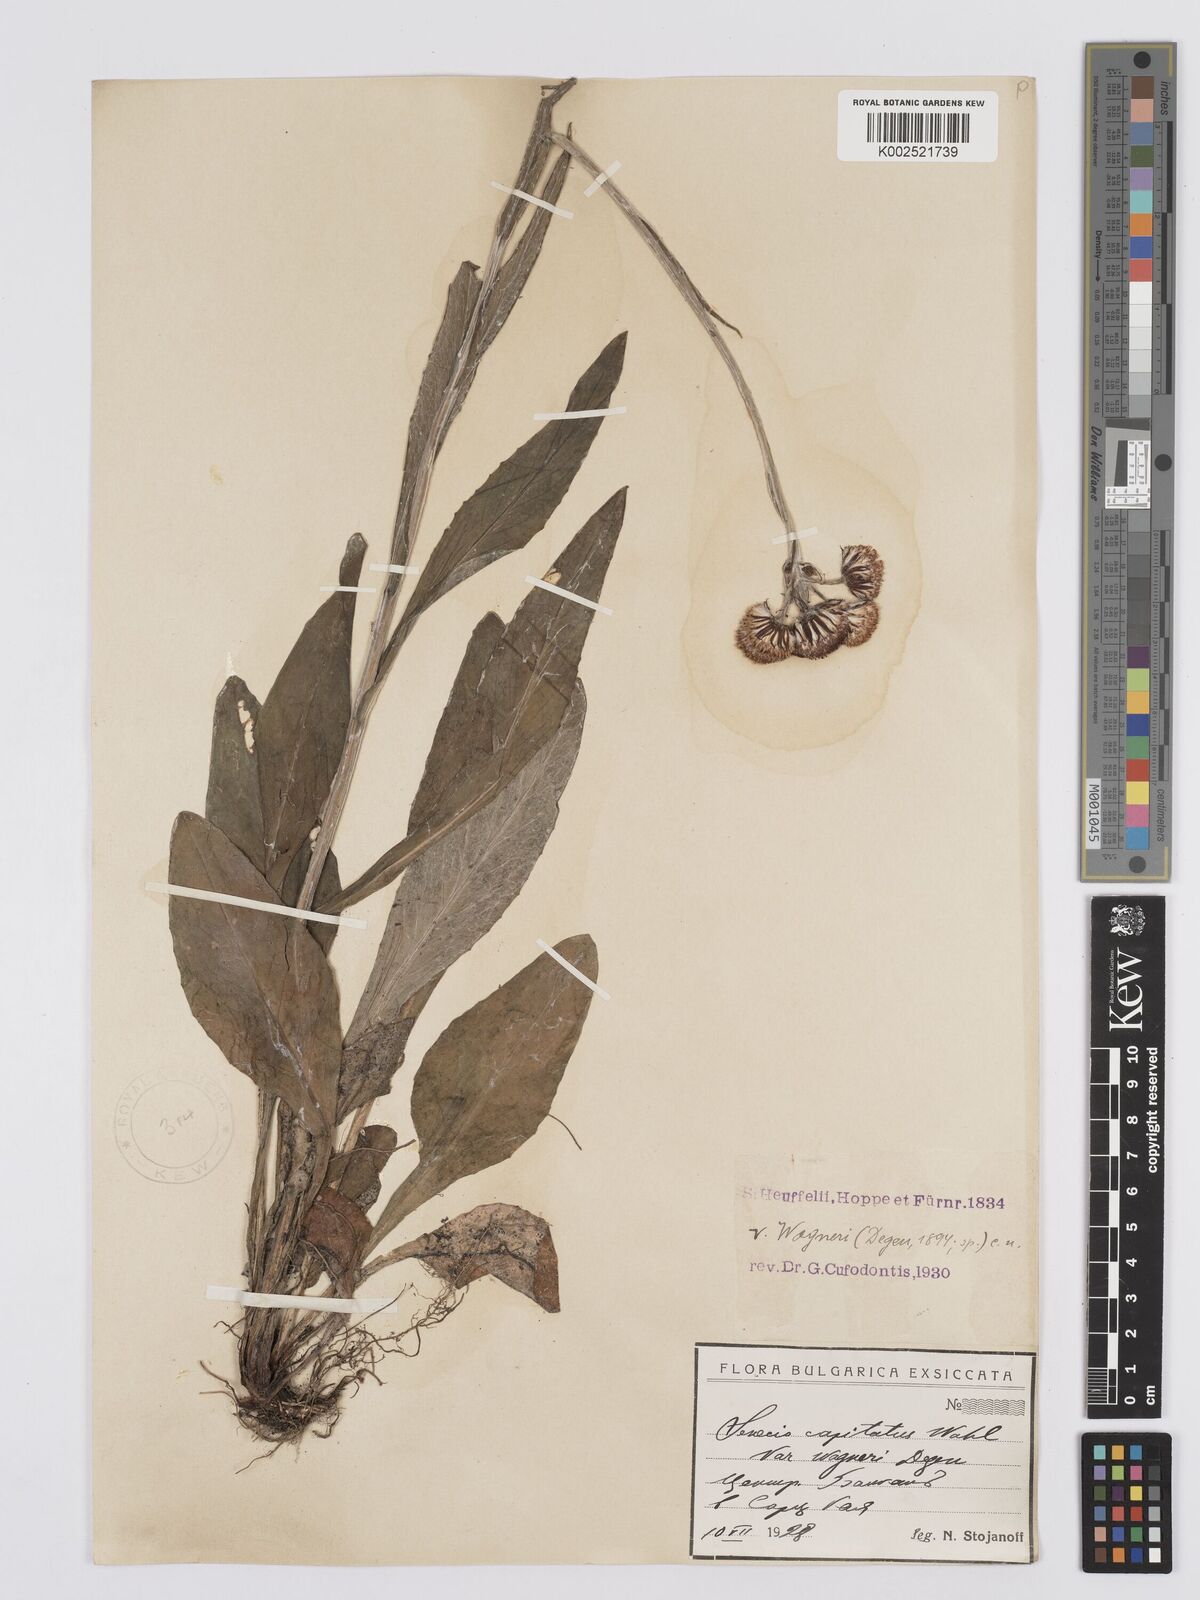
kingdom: Plantae
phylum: Tracheophyta
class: Magnoliopsida
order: Asterales
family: Asteraceae
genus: Tephroseris
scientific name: Tephroseris papposa
